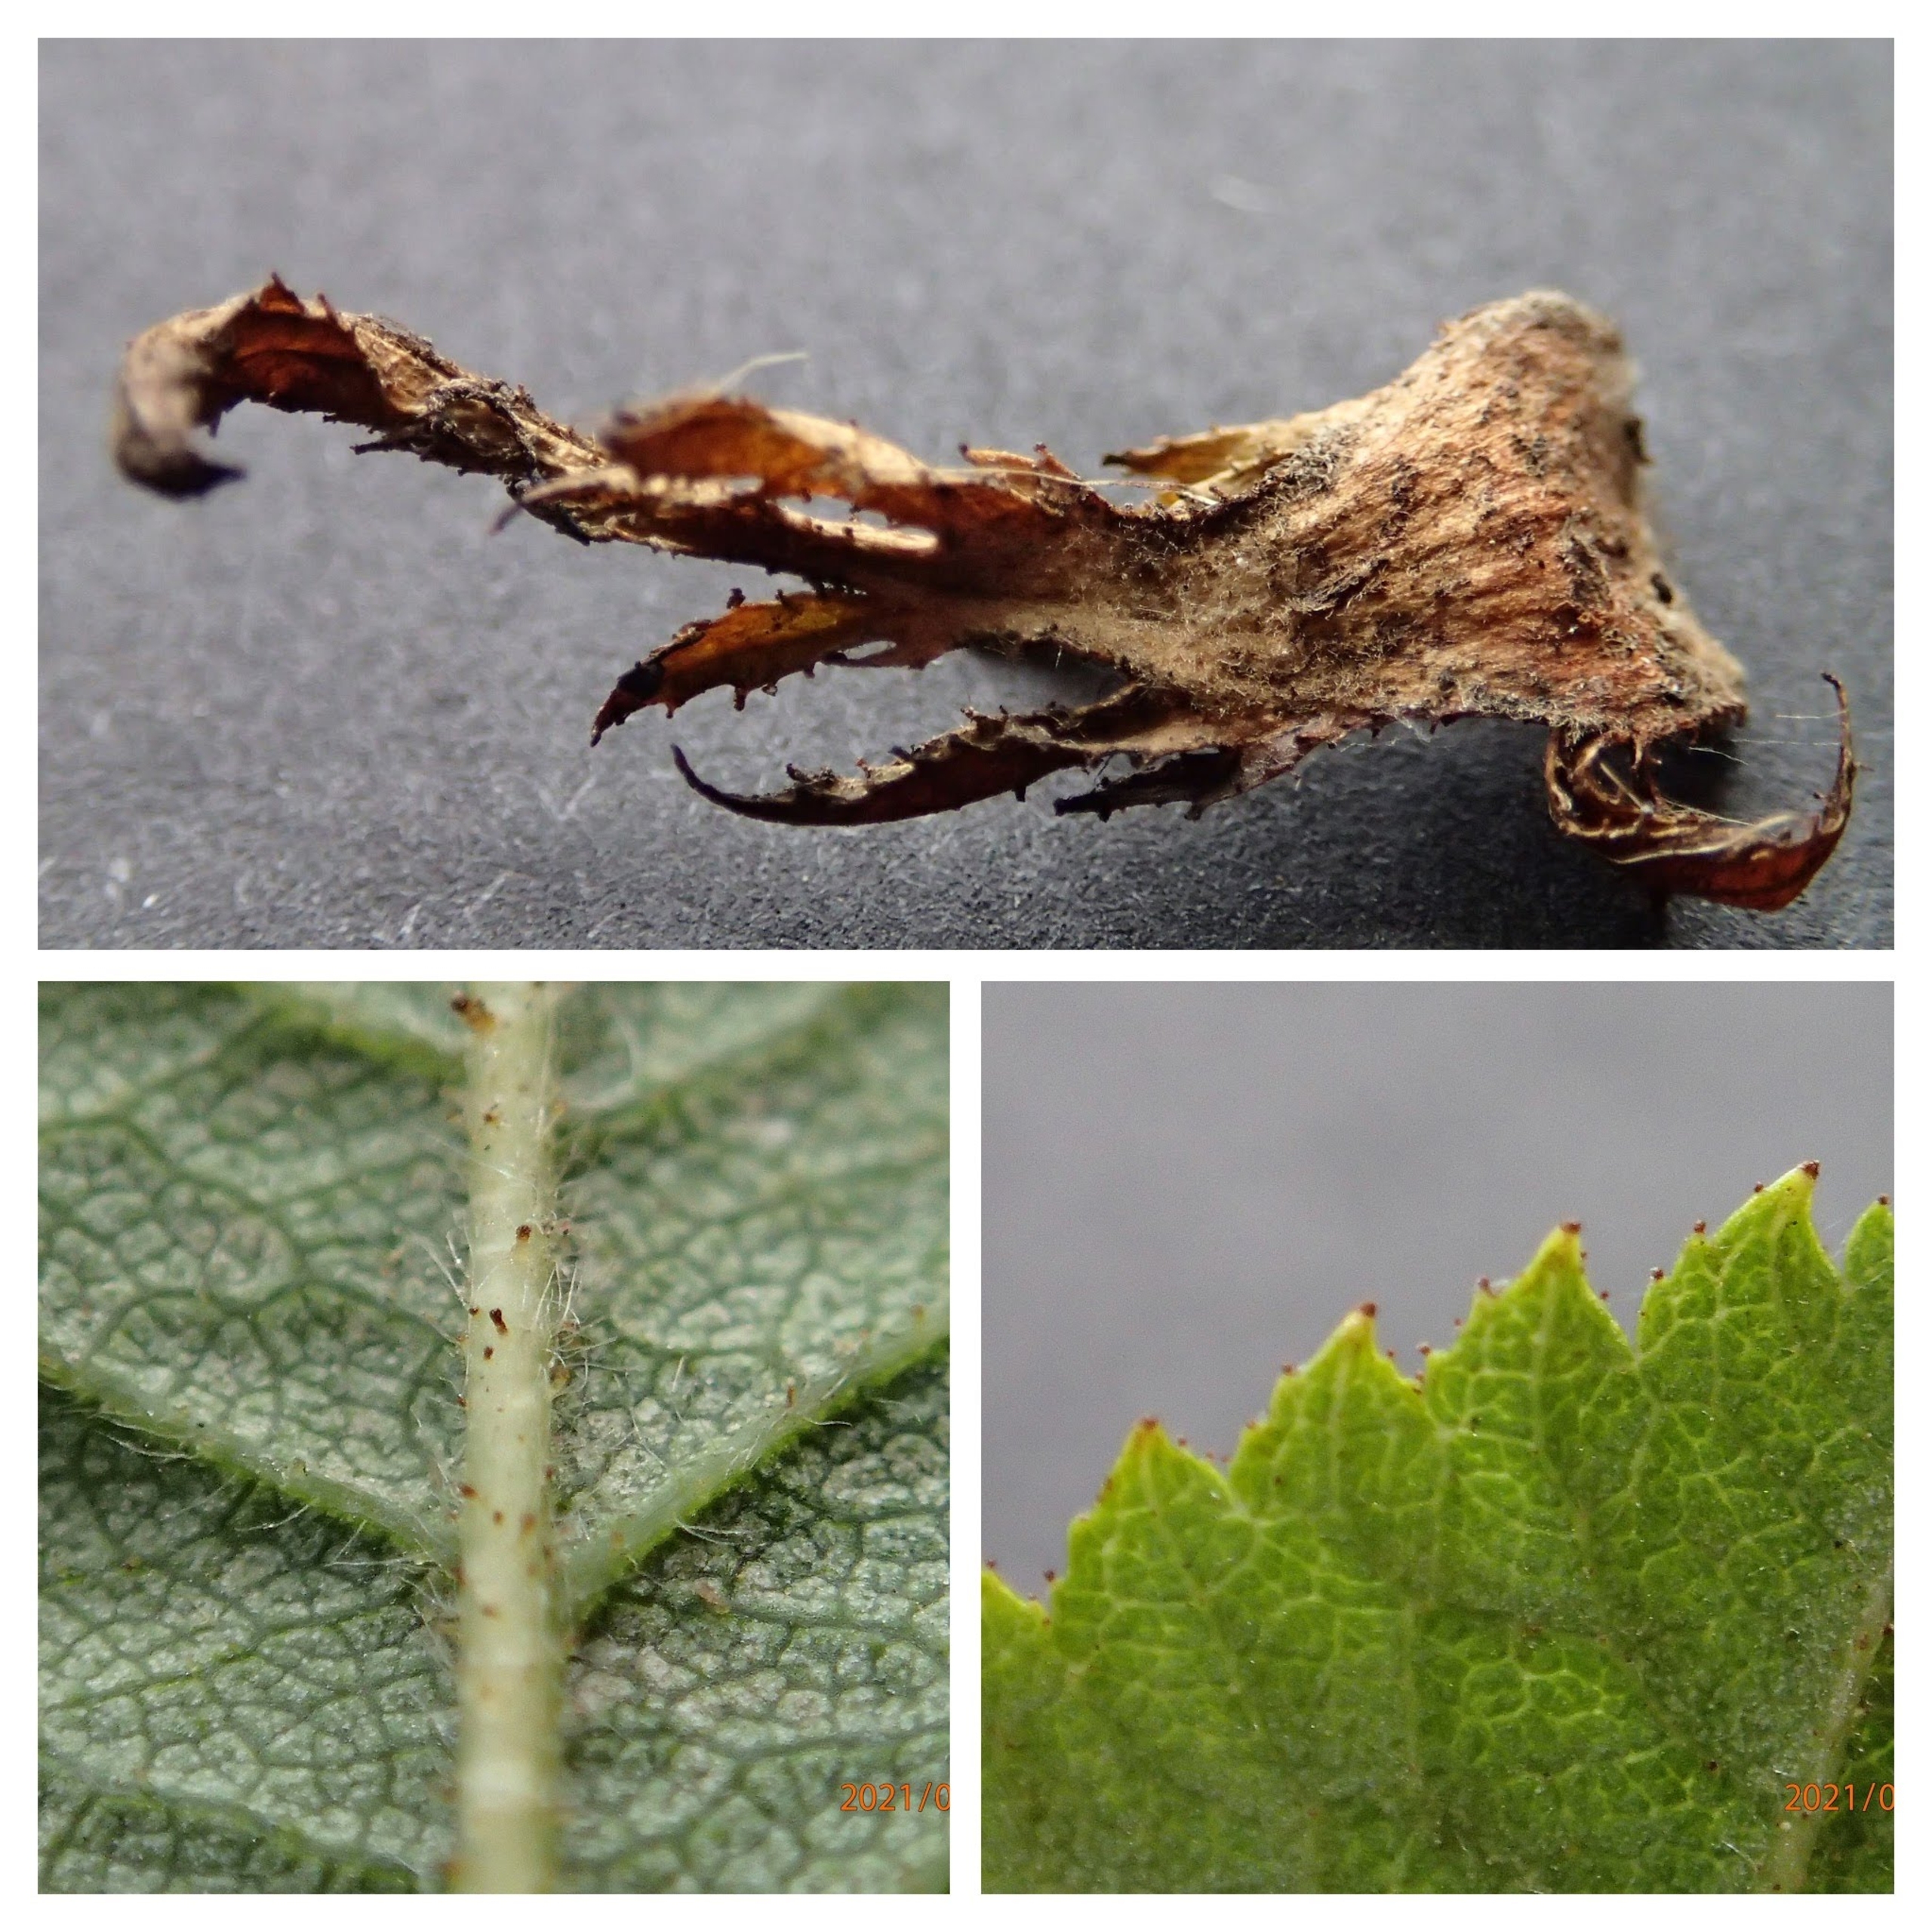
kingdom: Plantae
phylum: Tracheophyta
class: Magnoliopsida
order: Rosales
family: Rosaceae
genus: Rosa
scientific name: Rosa balsamica
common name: Rubladet rose
